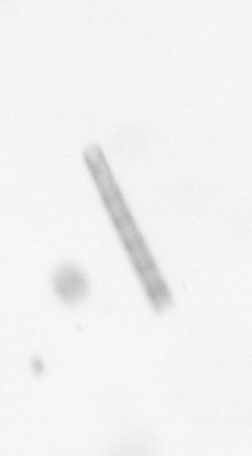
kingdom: Chromista
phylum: Ochrophyta
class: Bacillariophyceae
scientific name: Bacillariophyceae
